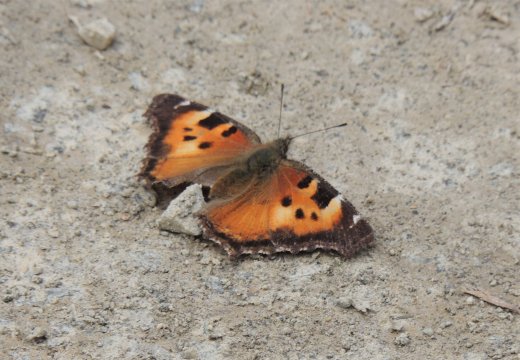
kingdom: Animalia
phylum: Arthropoda
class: Insecta
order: Lepidoptera
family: Nymphalidae
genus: Nymphalis
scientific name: Nymphalis californica
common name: California Tortoiseshell
